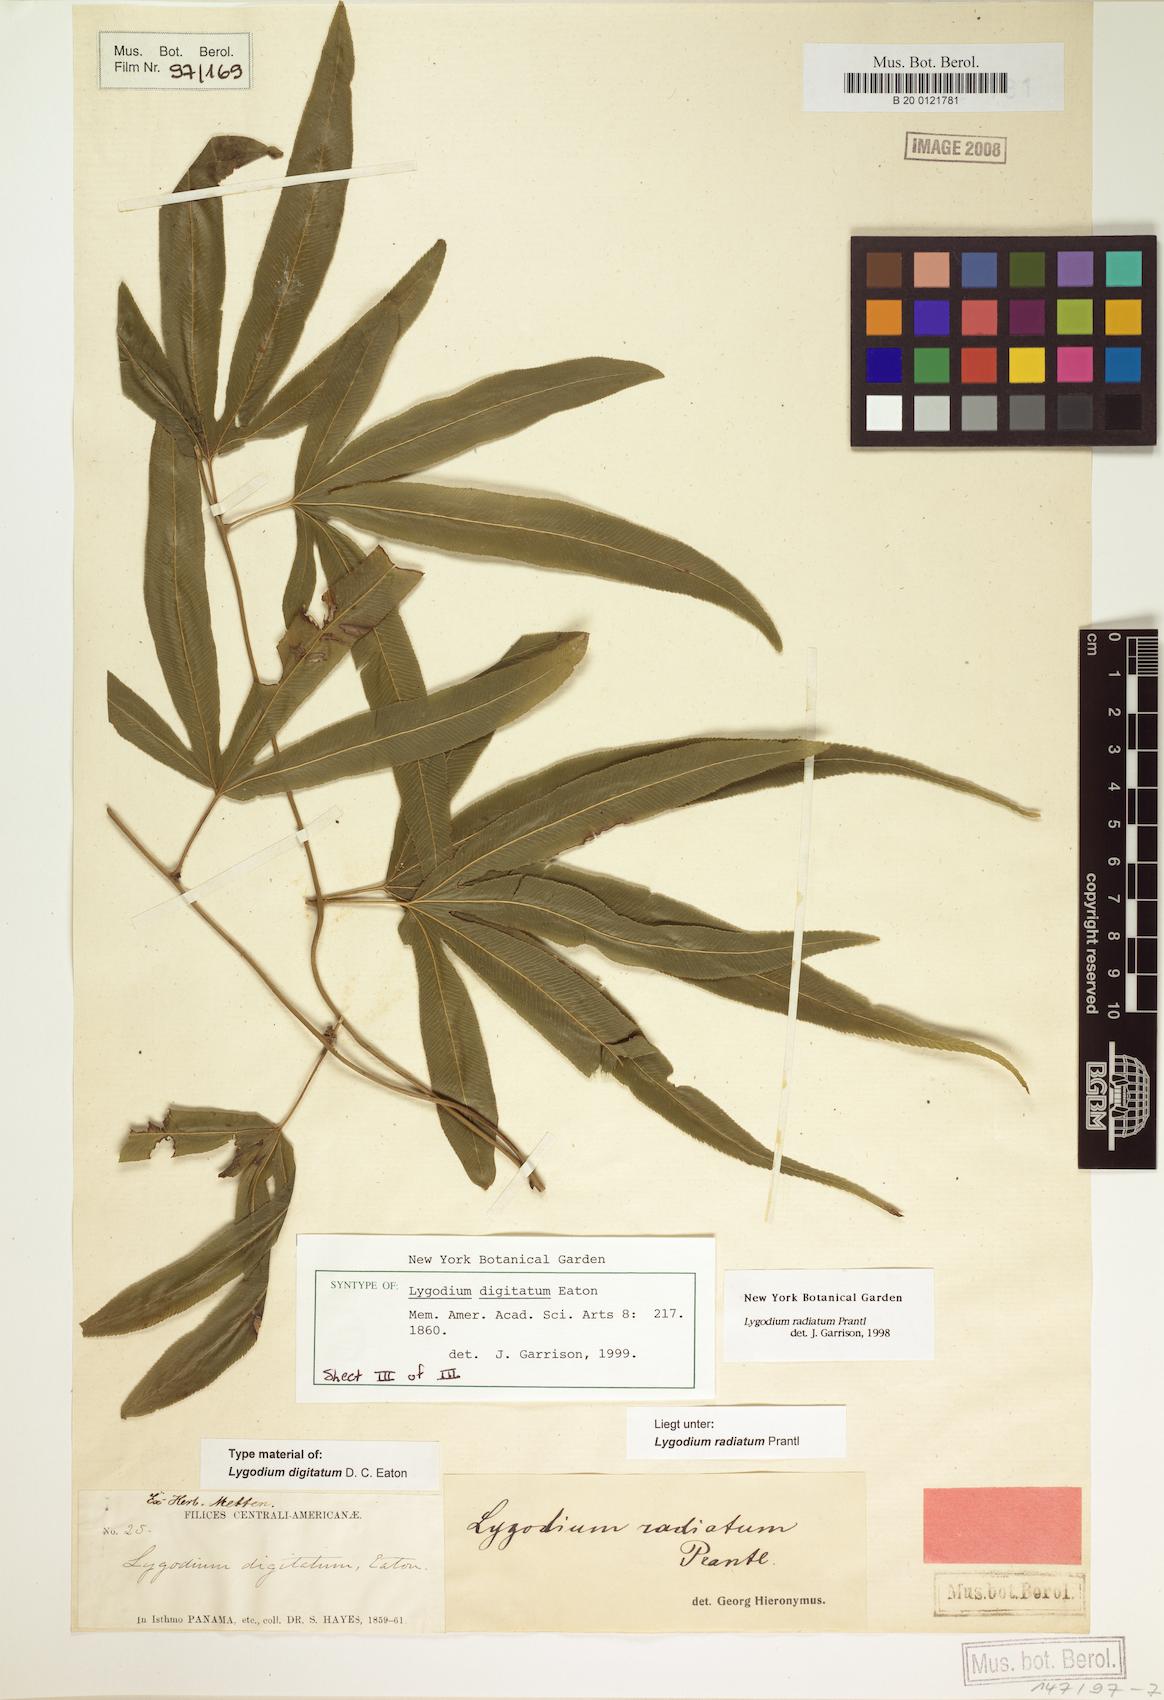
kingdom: Plantae
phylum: Tracheophyta
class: Polypodiopsida
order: Schizaeales
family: Lygodiaceae
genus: Lygodium
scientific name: Lygodium radiatum
